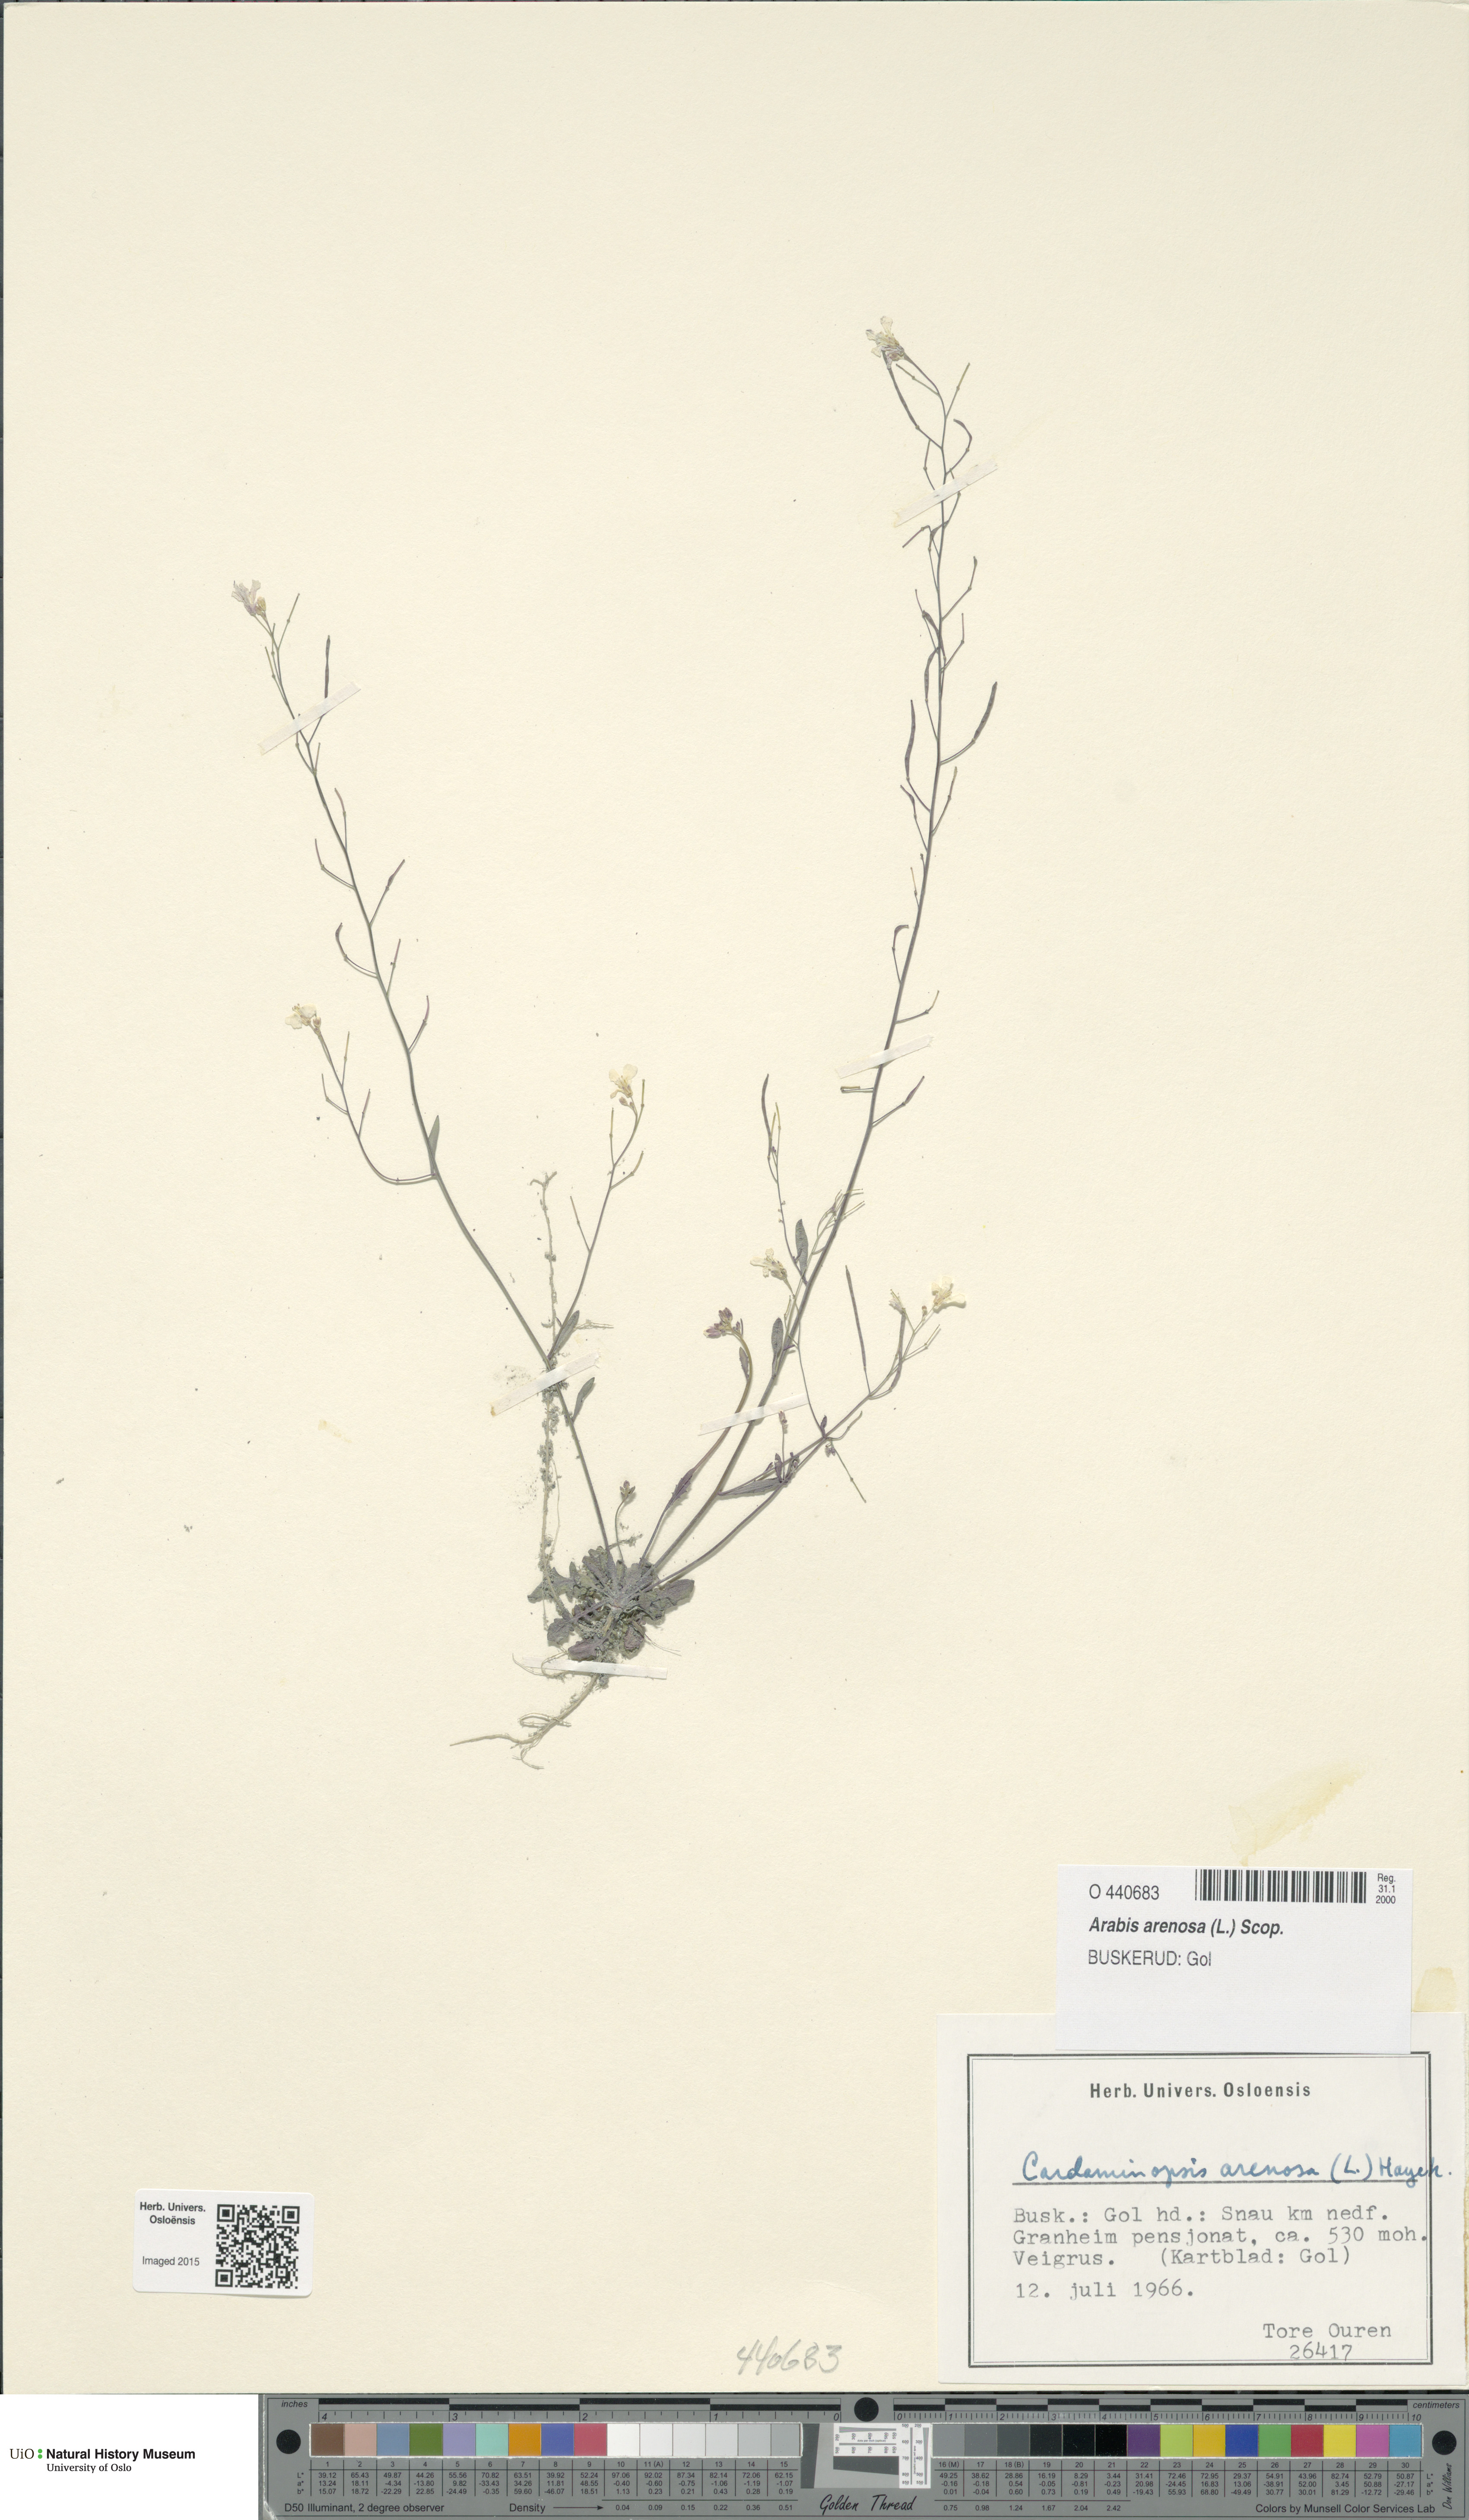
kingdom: Plantae
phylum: Tracheophyta
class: Magnoliopsida
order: Brassicales
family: Brassicaceae
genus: Arabidopsis
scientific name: Arabidopsis arenosa
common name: Sand rock-cress
